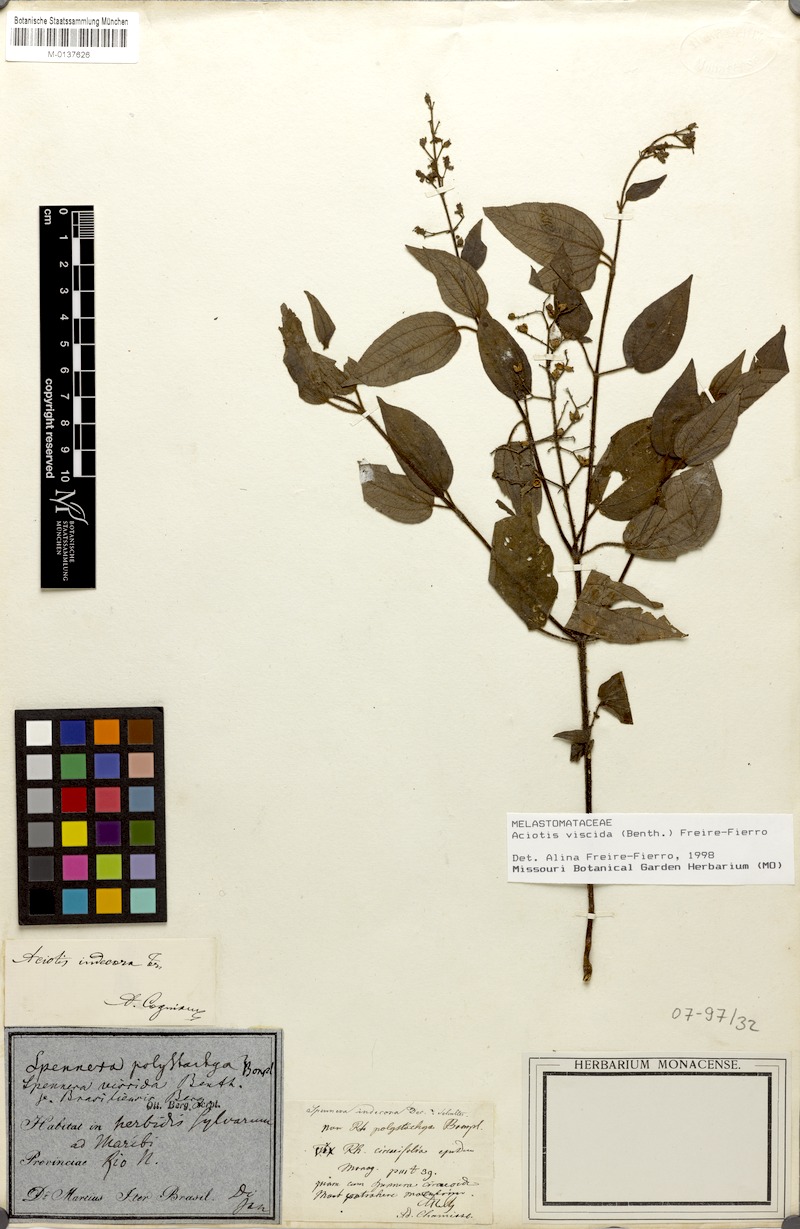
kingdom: Plantae
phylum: Tracheophyta
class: Magnoliopsida
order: Myrtales
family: Melastomataceae
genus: Aciotis
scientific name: Aciotis viscida
